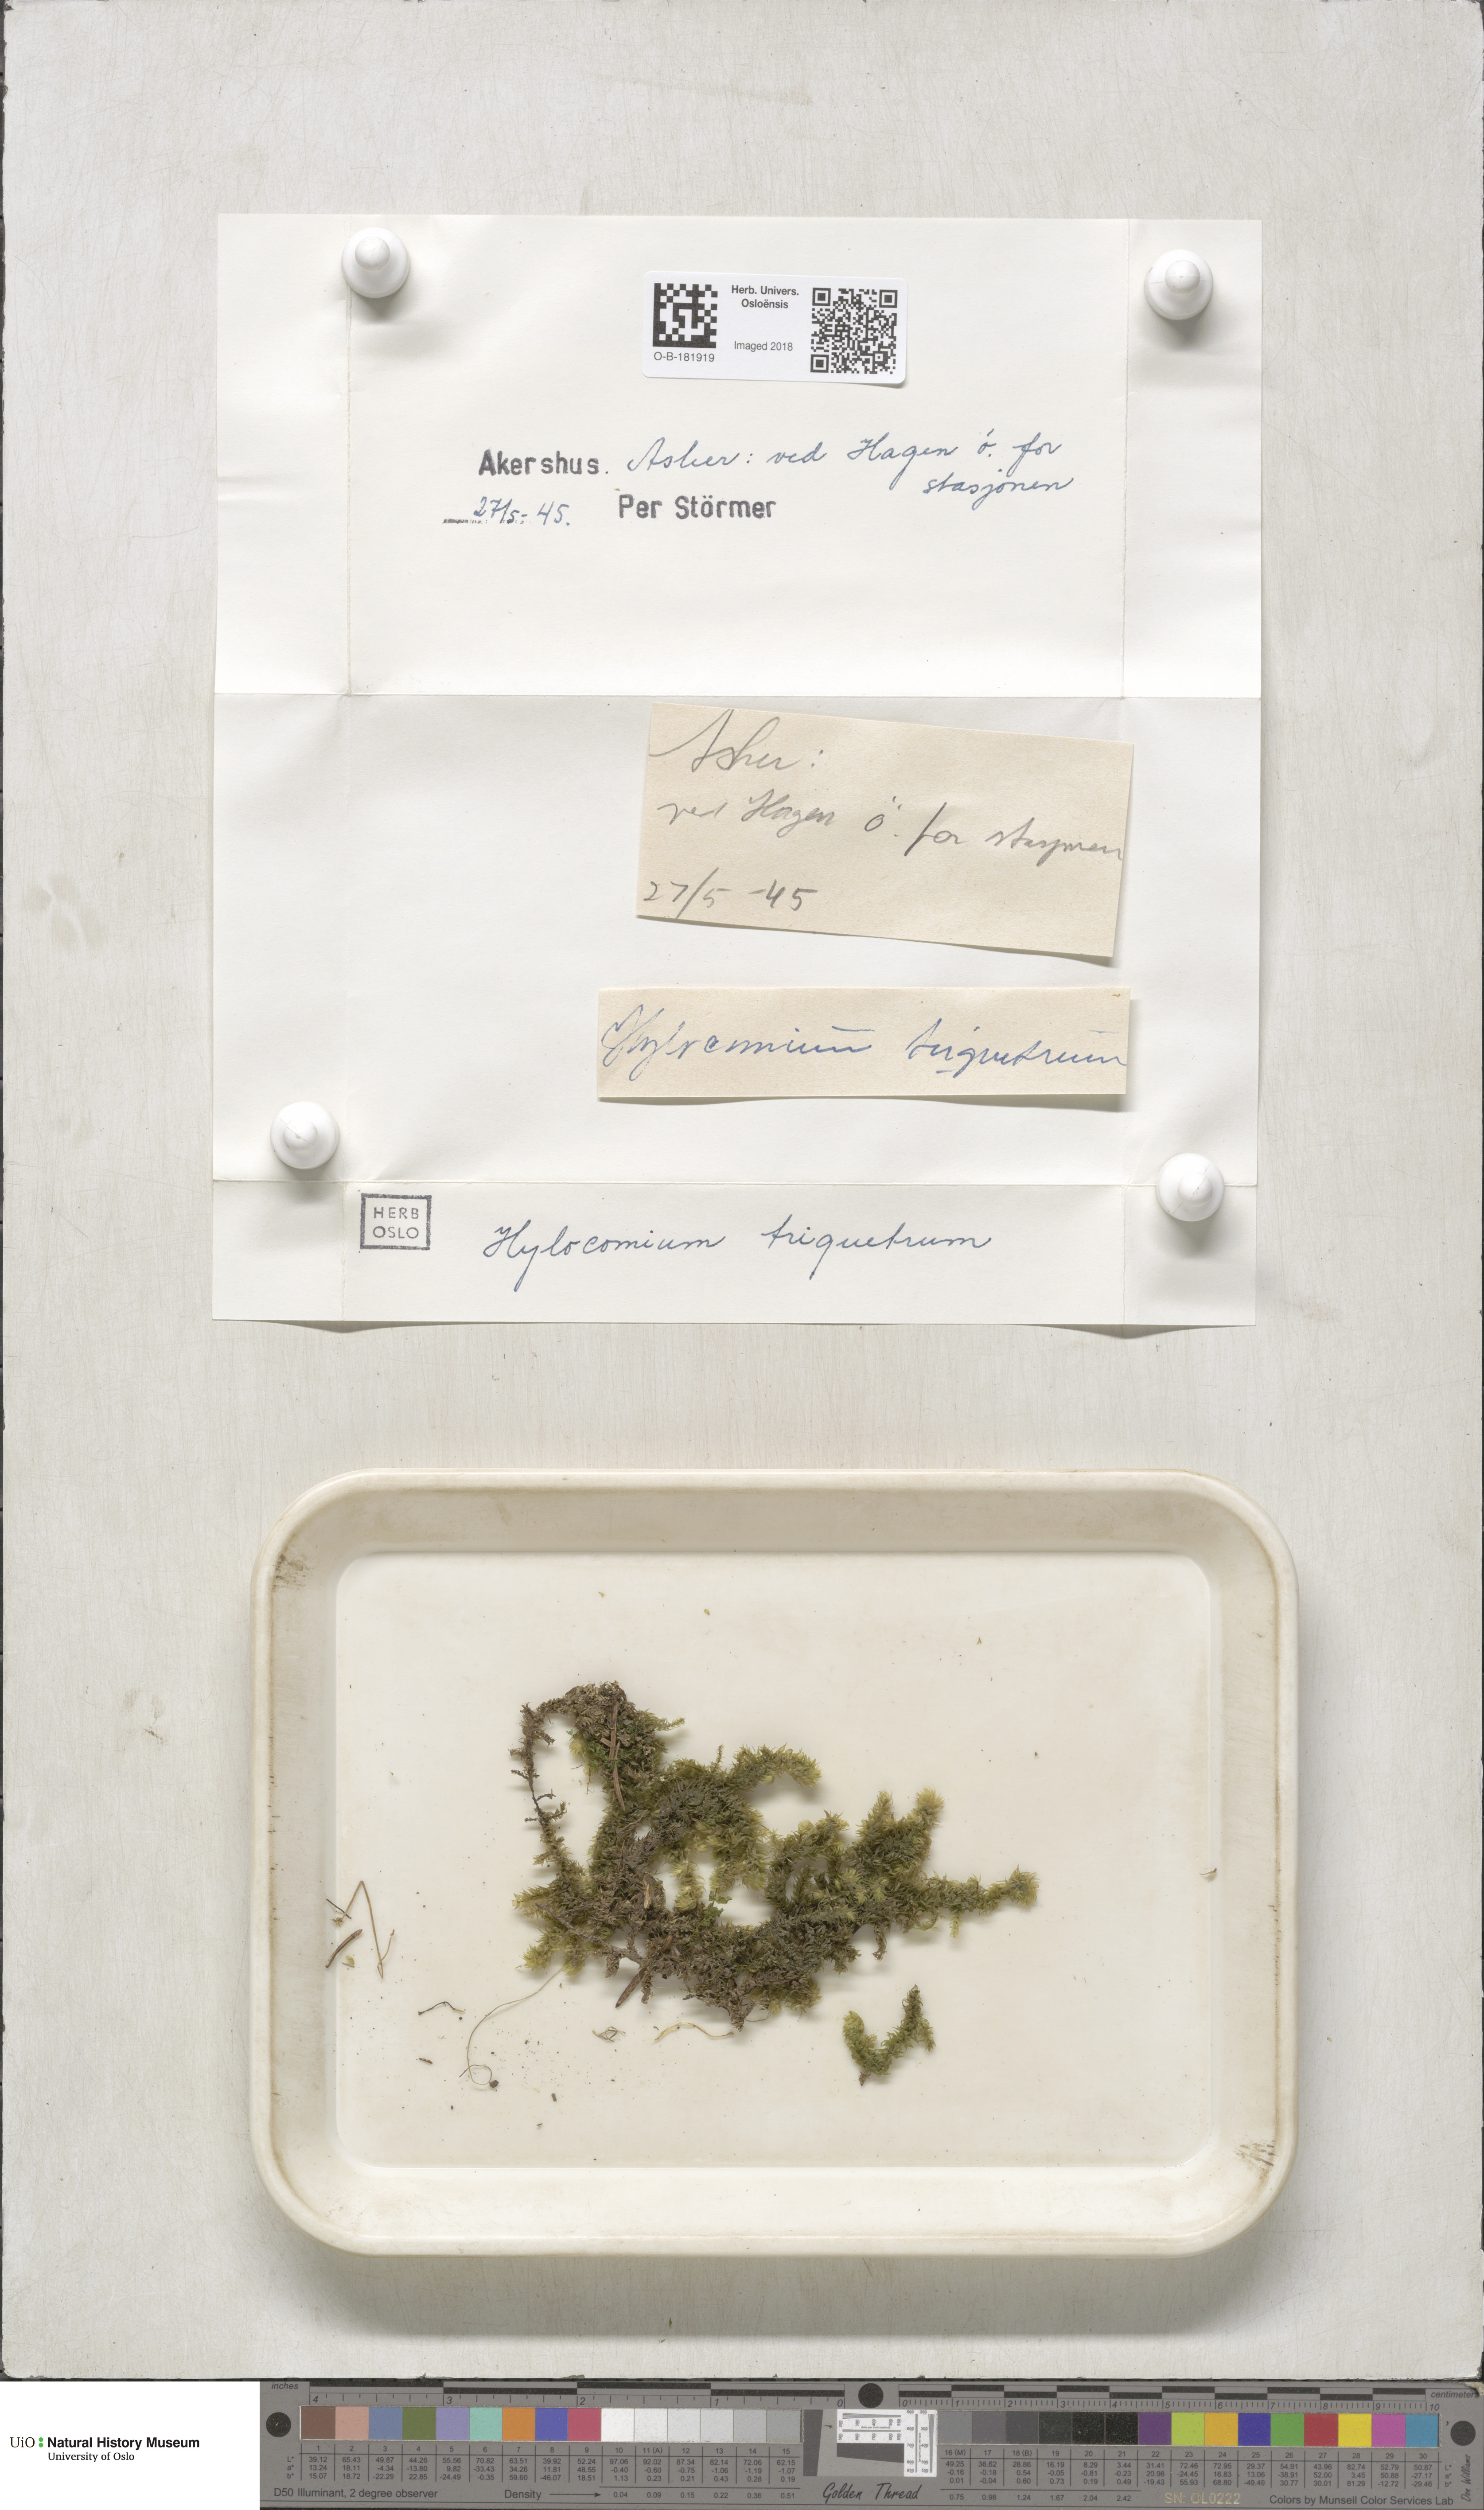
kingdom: Plantae
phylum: Bryophyta
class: Bryopsida
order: Hypnales
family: Hylocomiaceae
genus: Hylocomiadelphus
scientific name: Hylocomiadelphus triquetrus
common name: Rough goose neck moss
